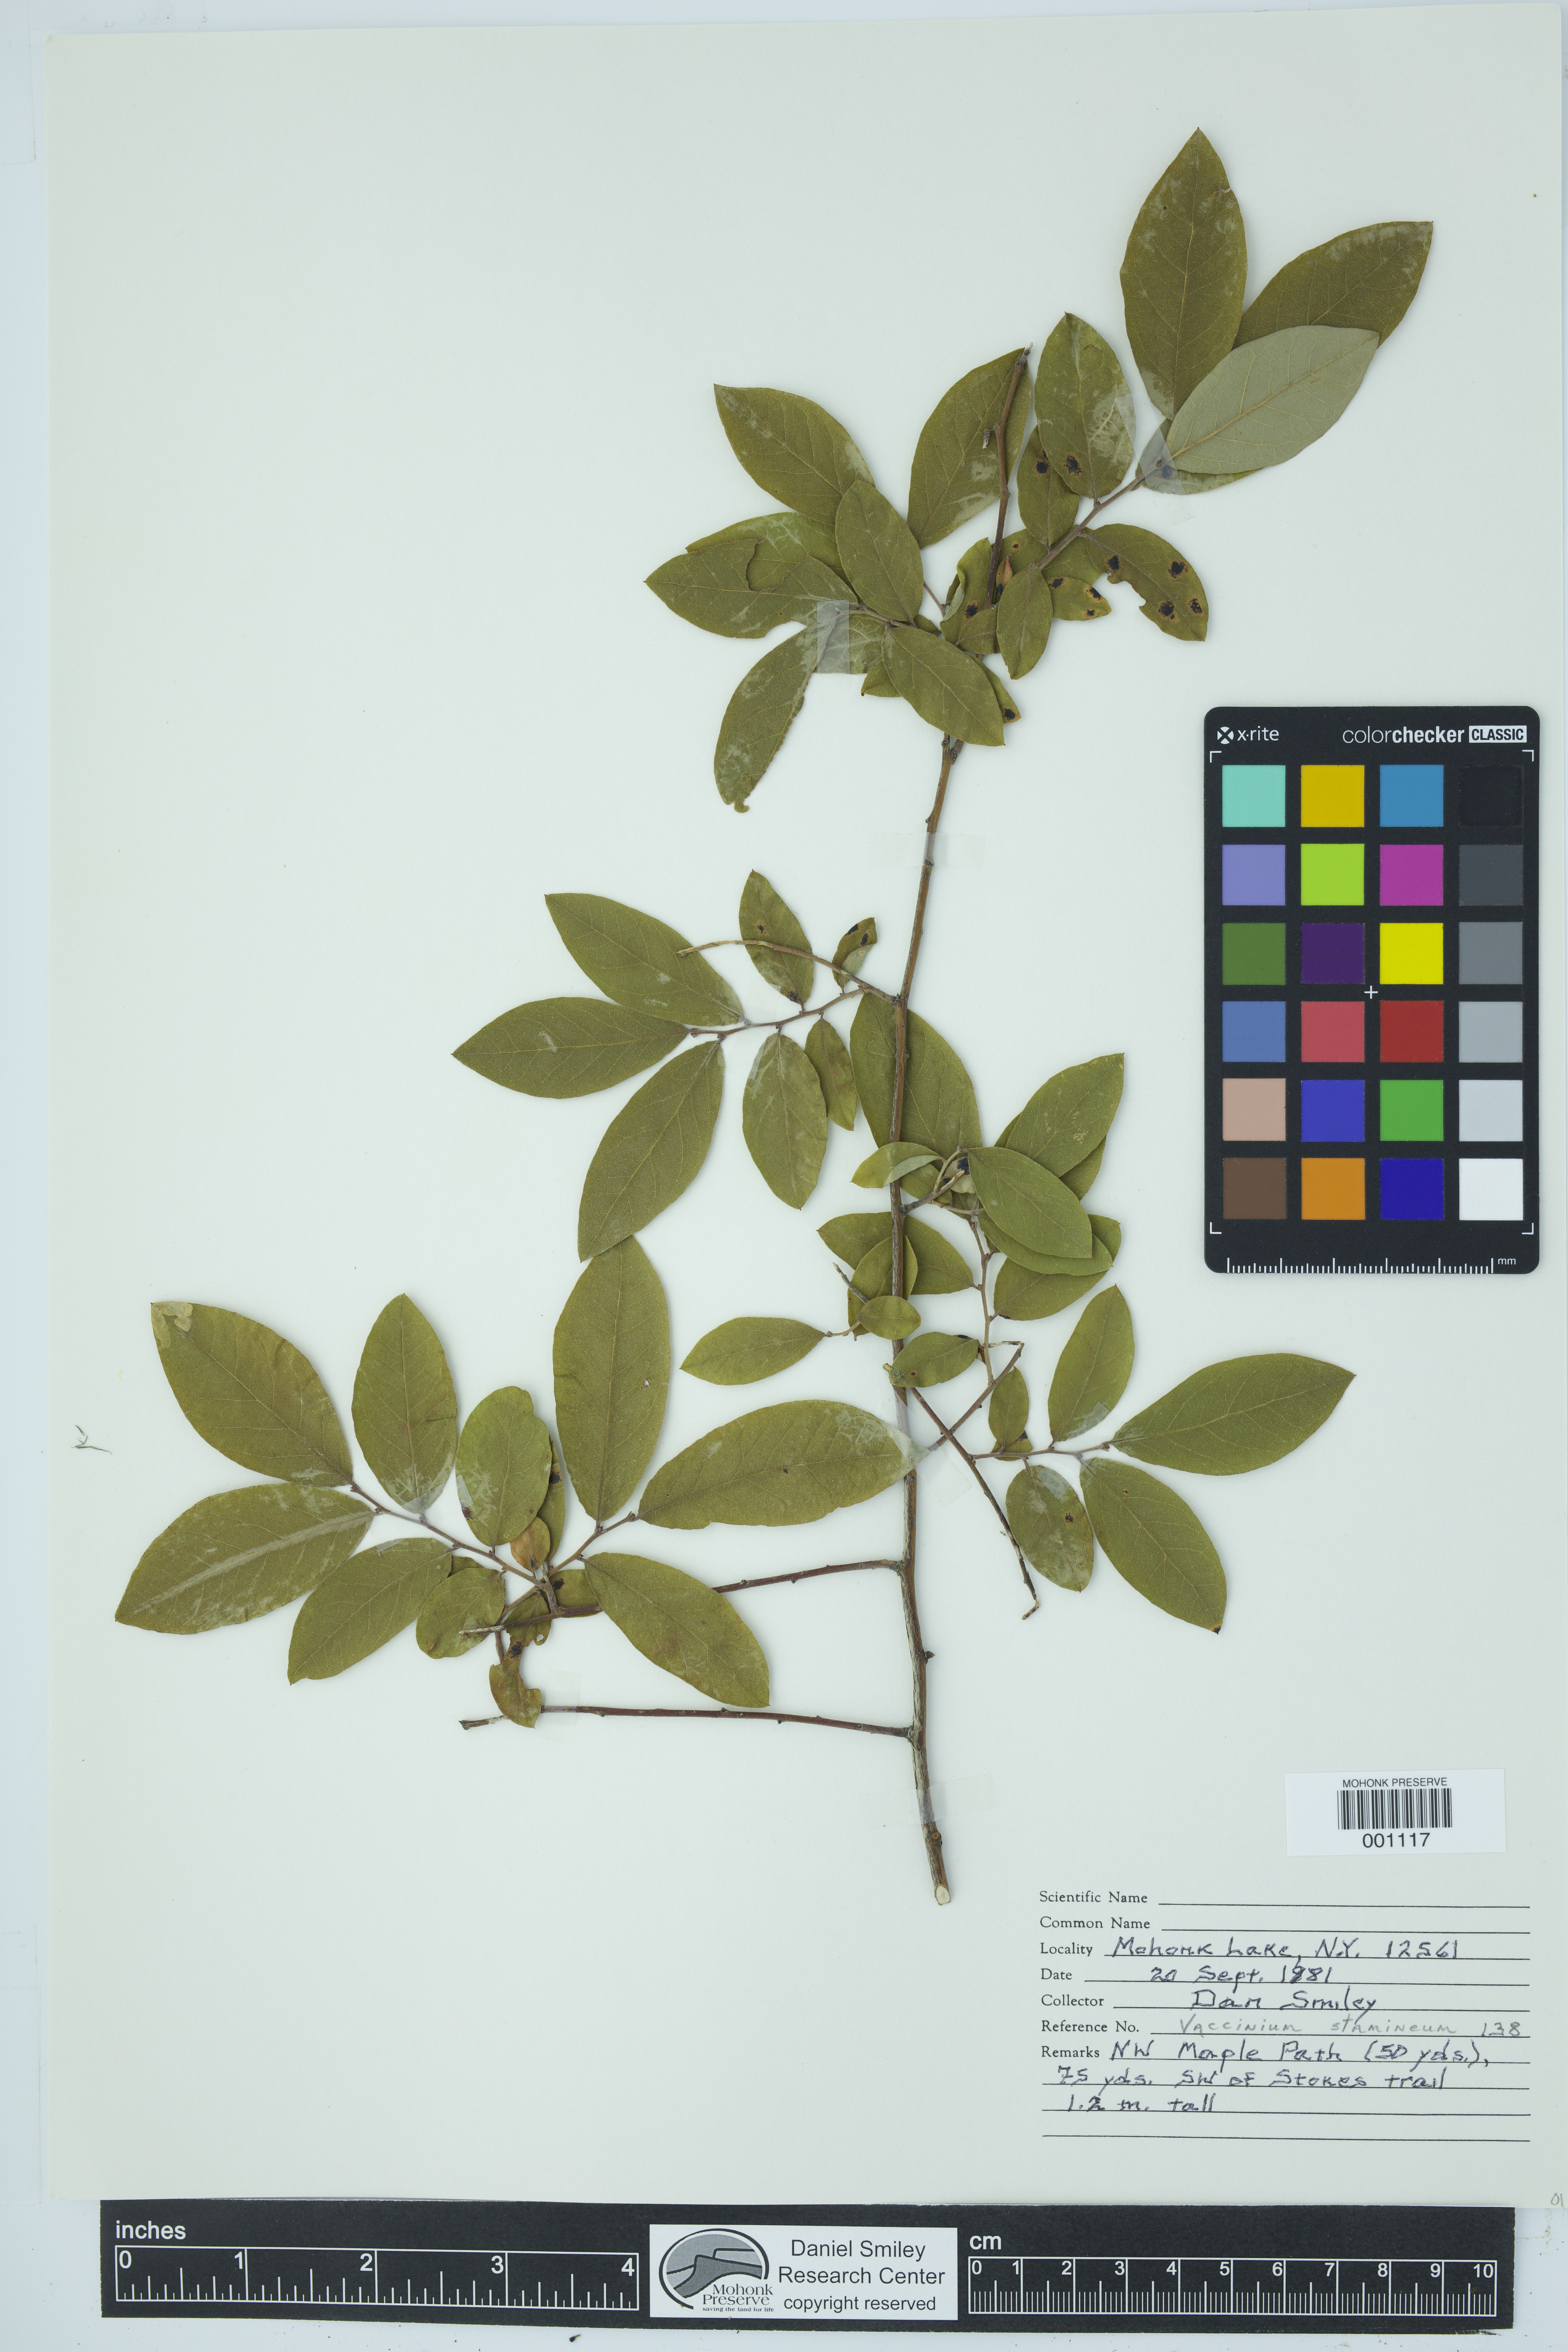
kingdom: Plantae
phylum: Tracheophyta
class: Magnoliopsida
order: Ericales
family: Ericaceae
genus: Vaccinium
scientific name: Vaccinium stamineum
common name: Deerberry
